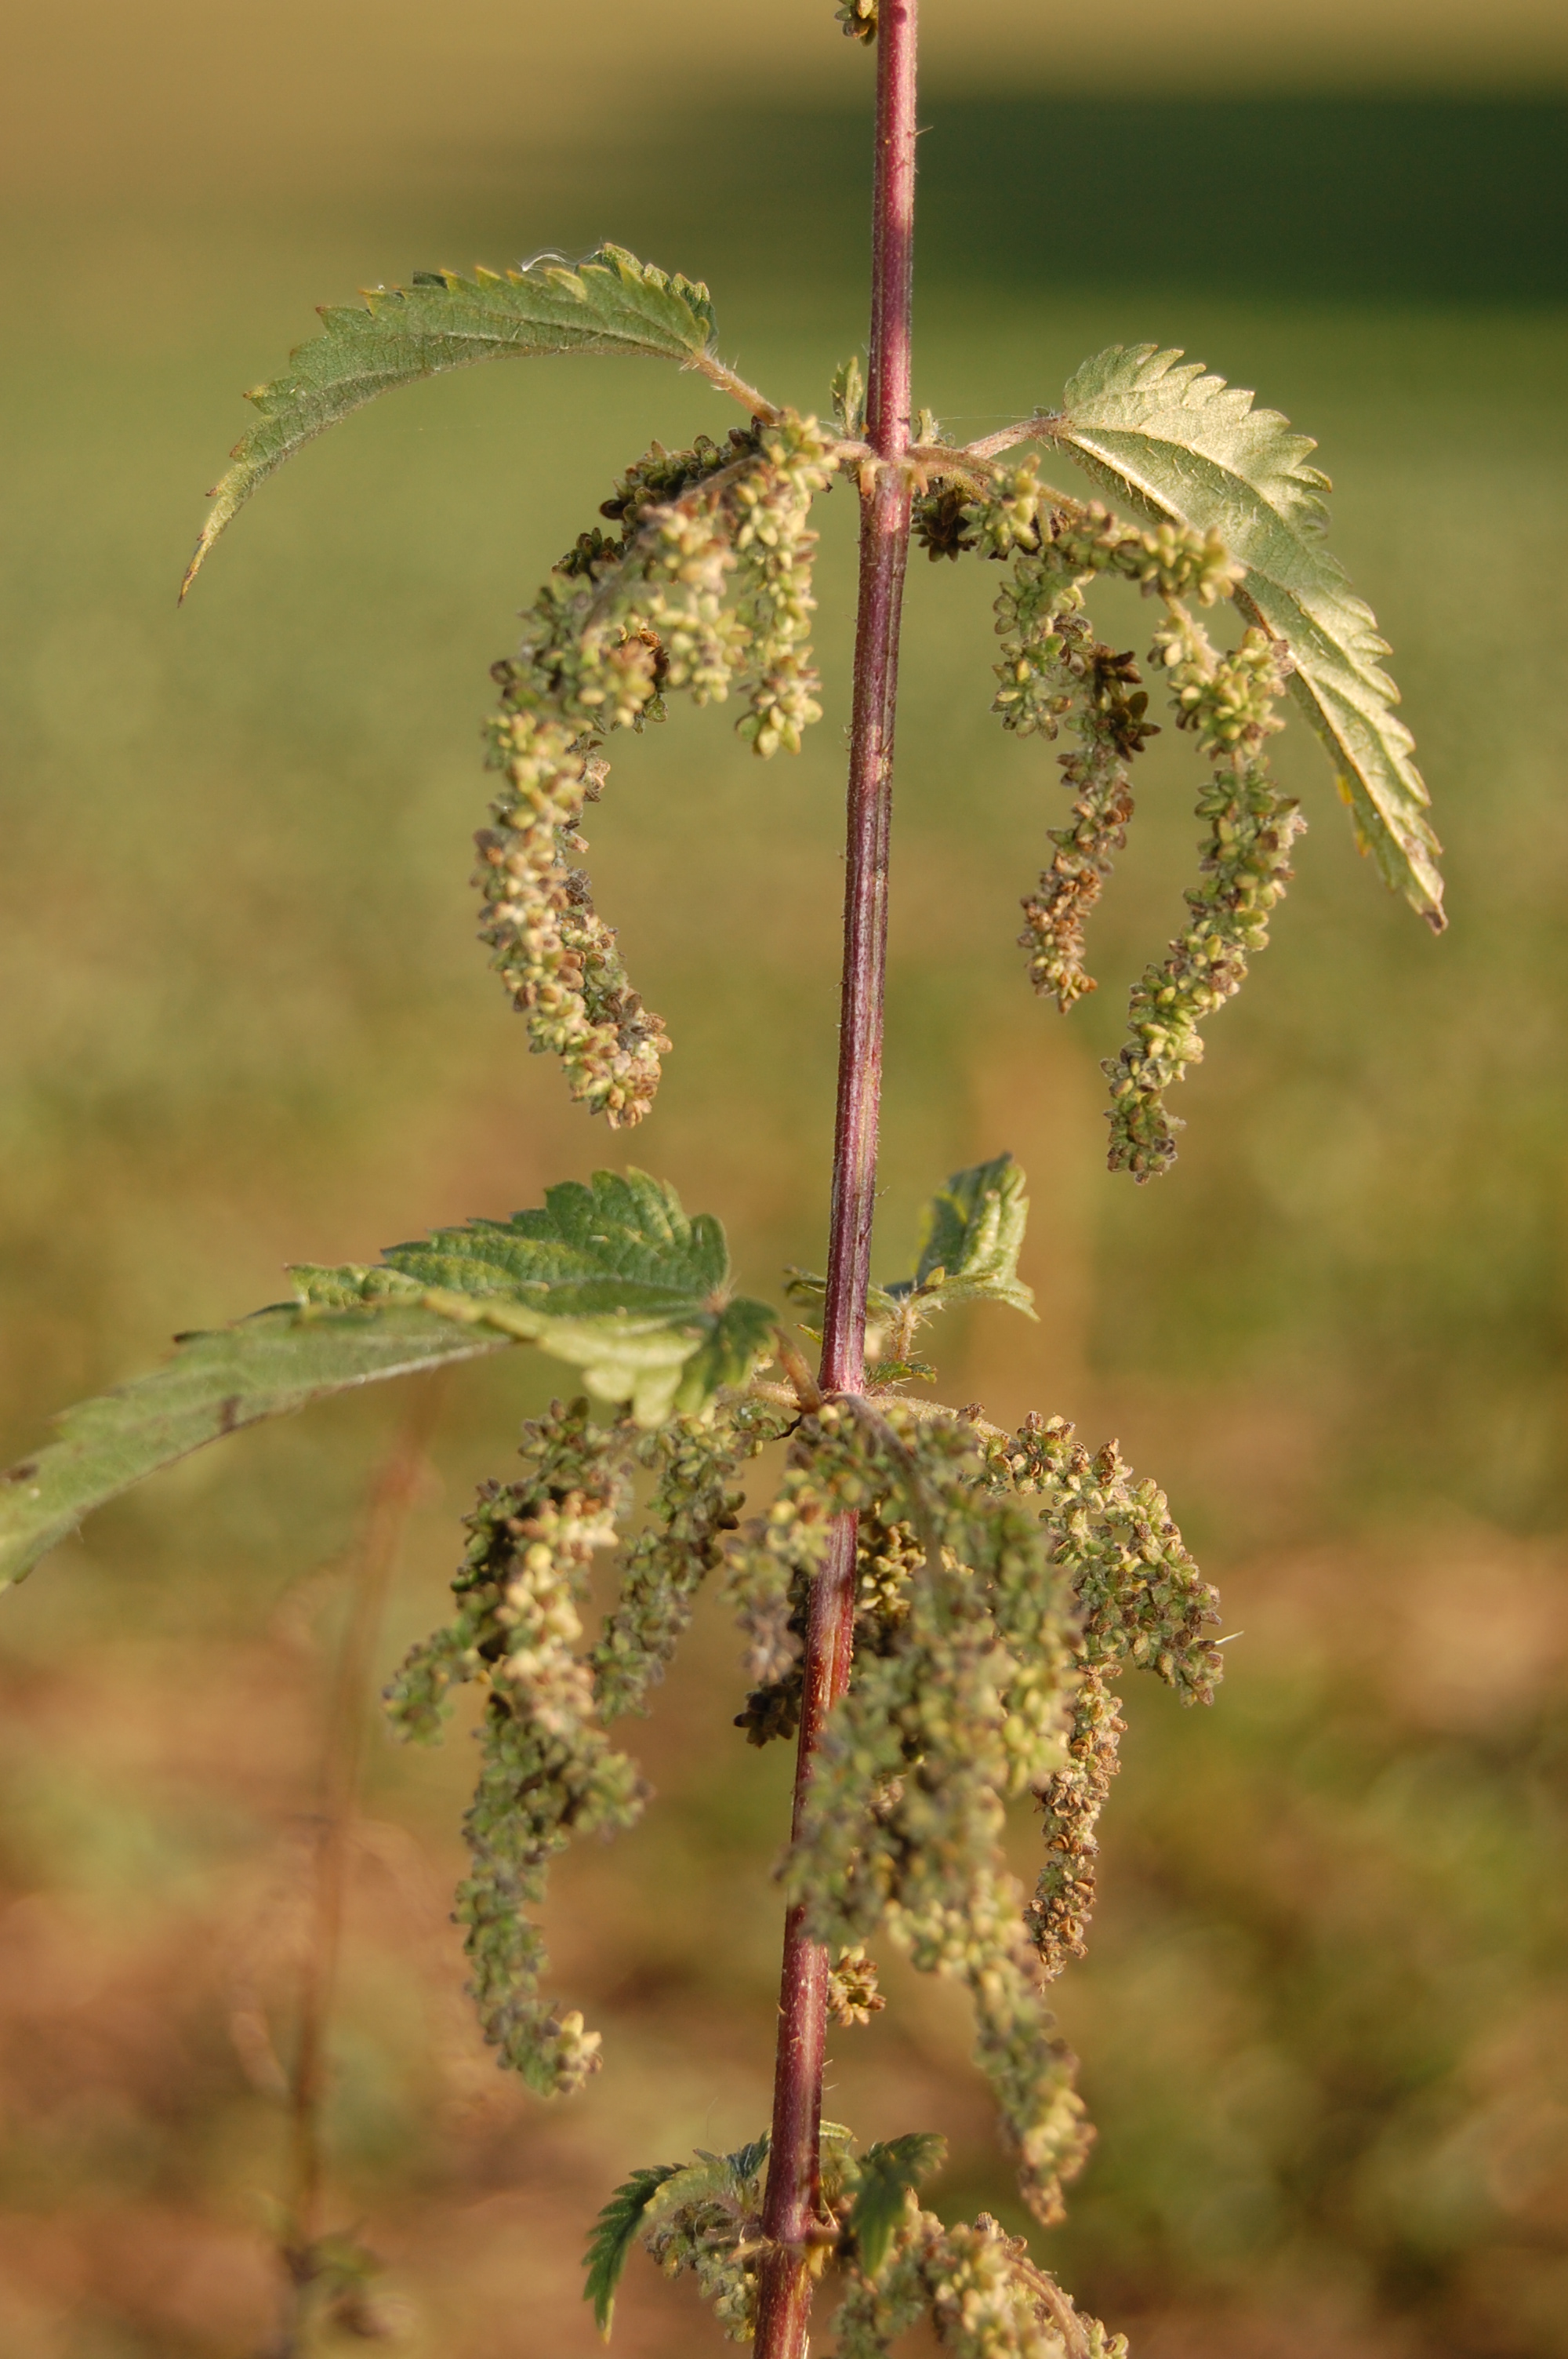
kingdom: Plantae
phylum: Tracheophyta
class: Magnoliopsida
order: Rosales
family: Urticaceae
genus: Urtica
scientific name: Urtica dioica
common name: Common nettle
